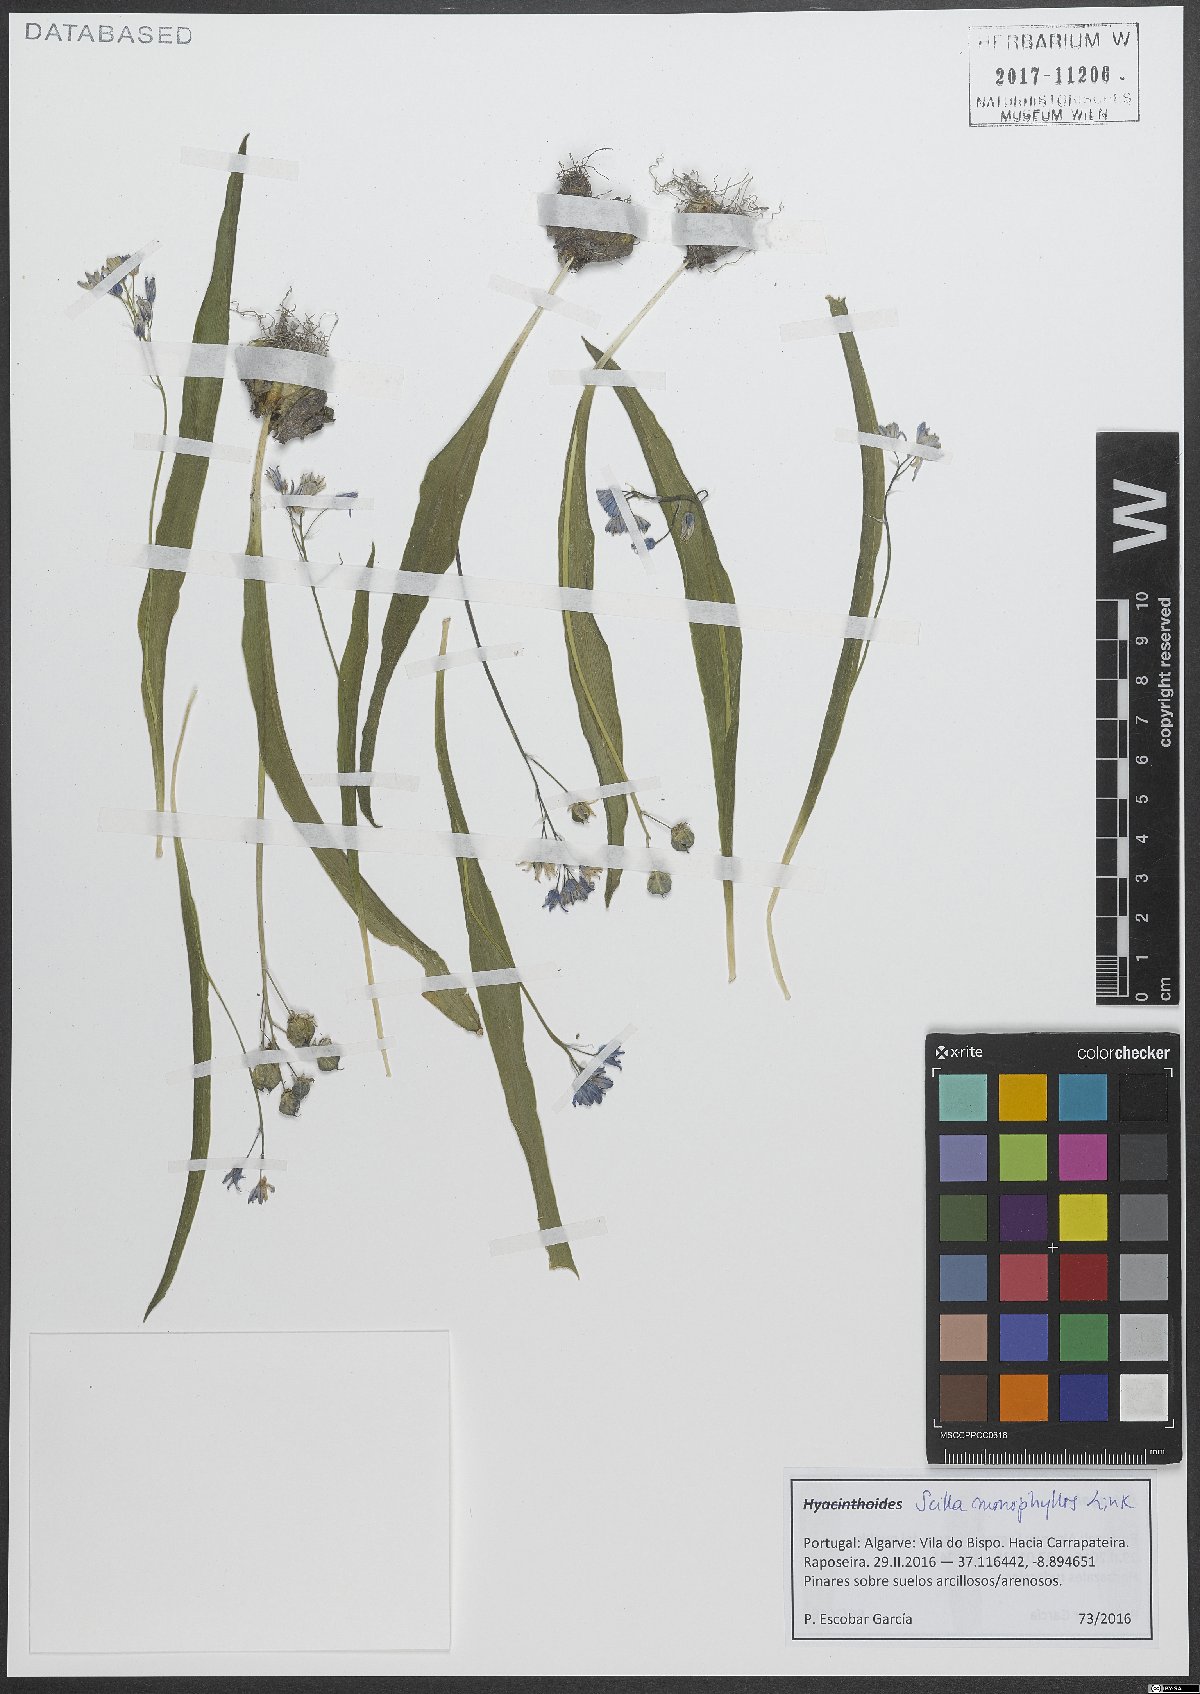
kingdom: Plantae
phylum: Tracheophyta
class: Liliopsida
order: Asparagales
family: Asparagaceae
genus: Scilla
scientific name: Scilla monophyllos
